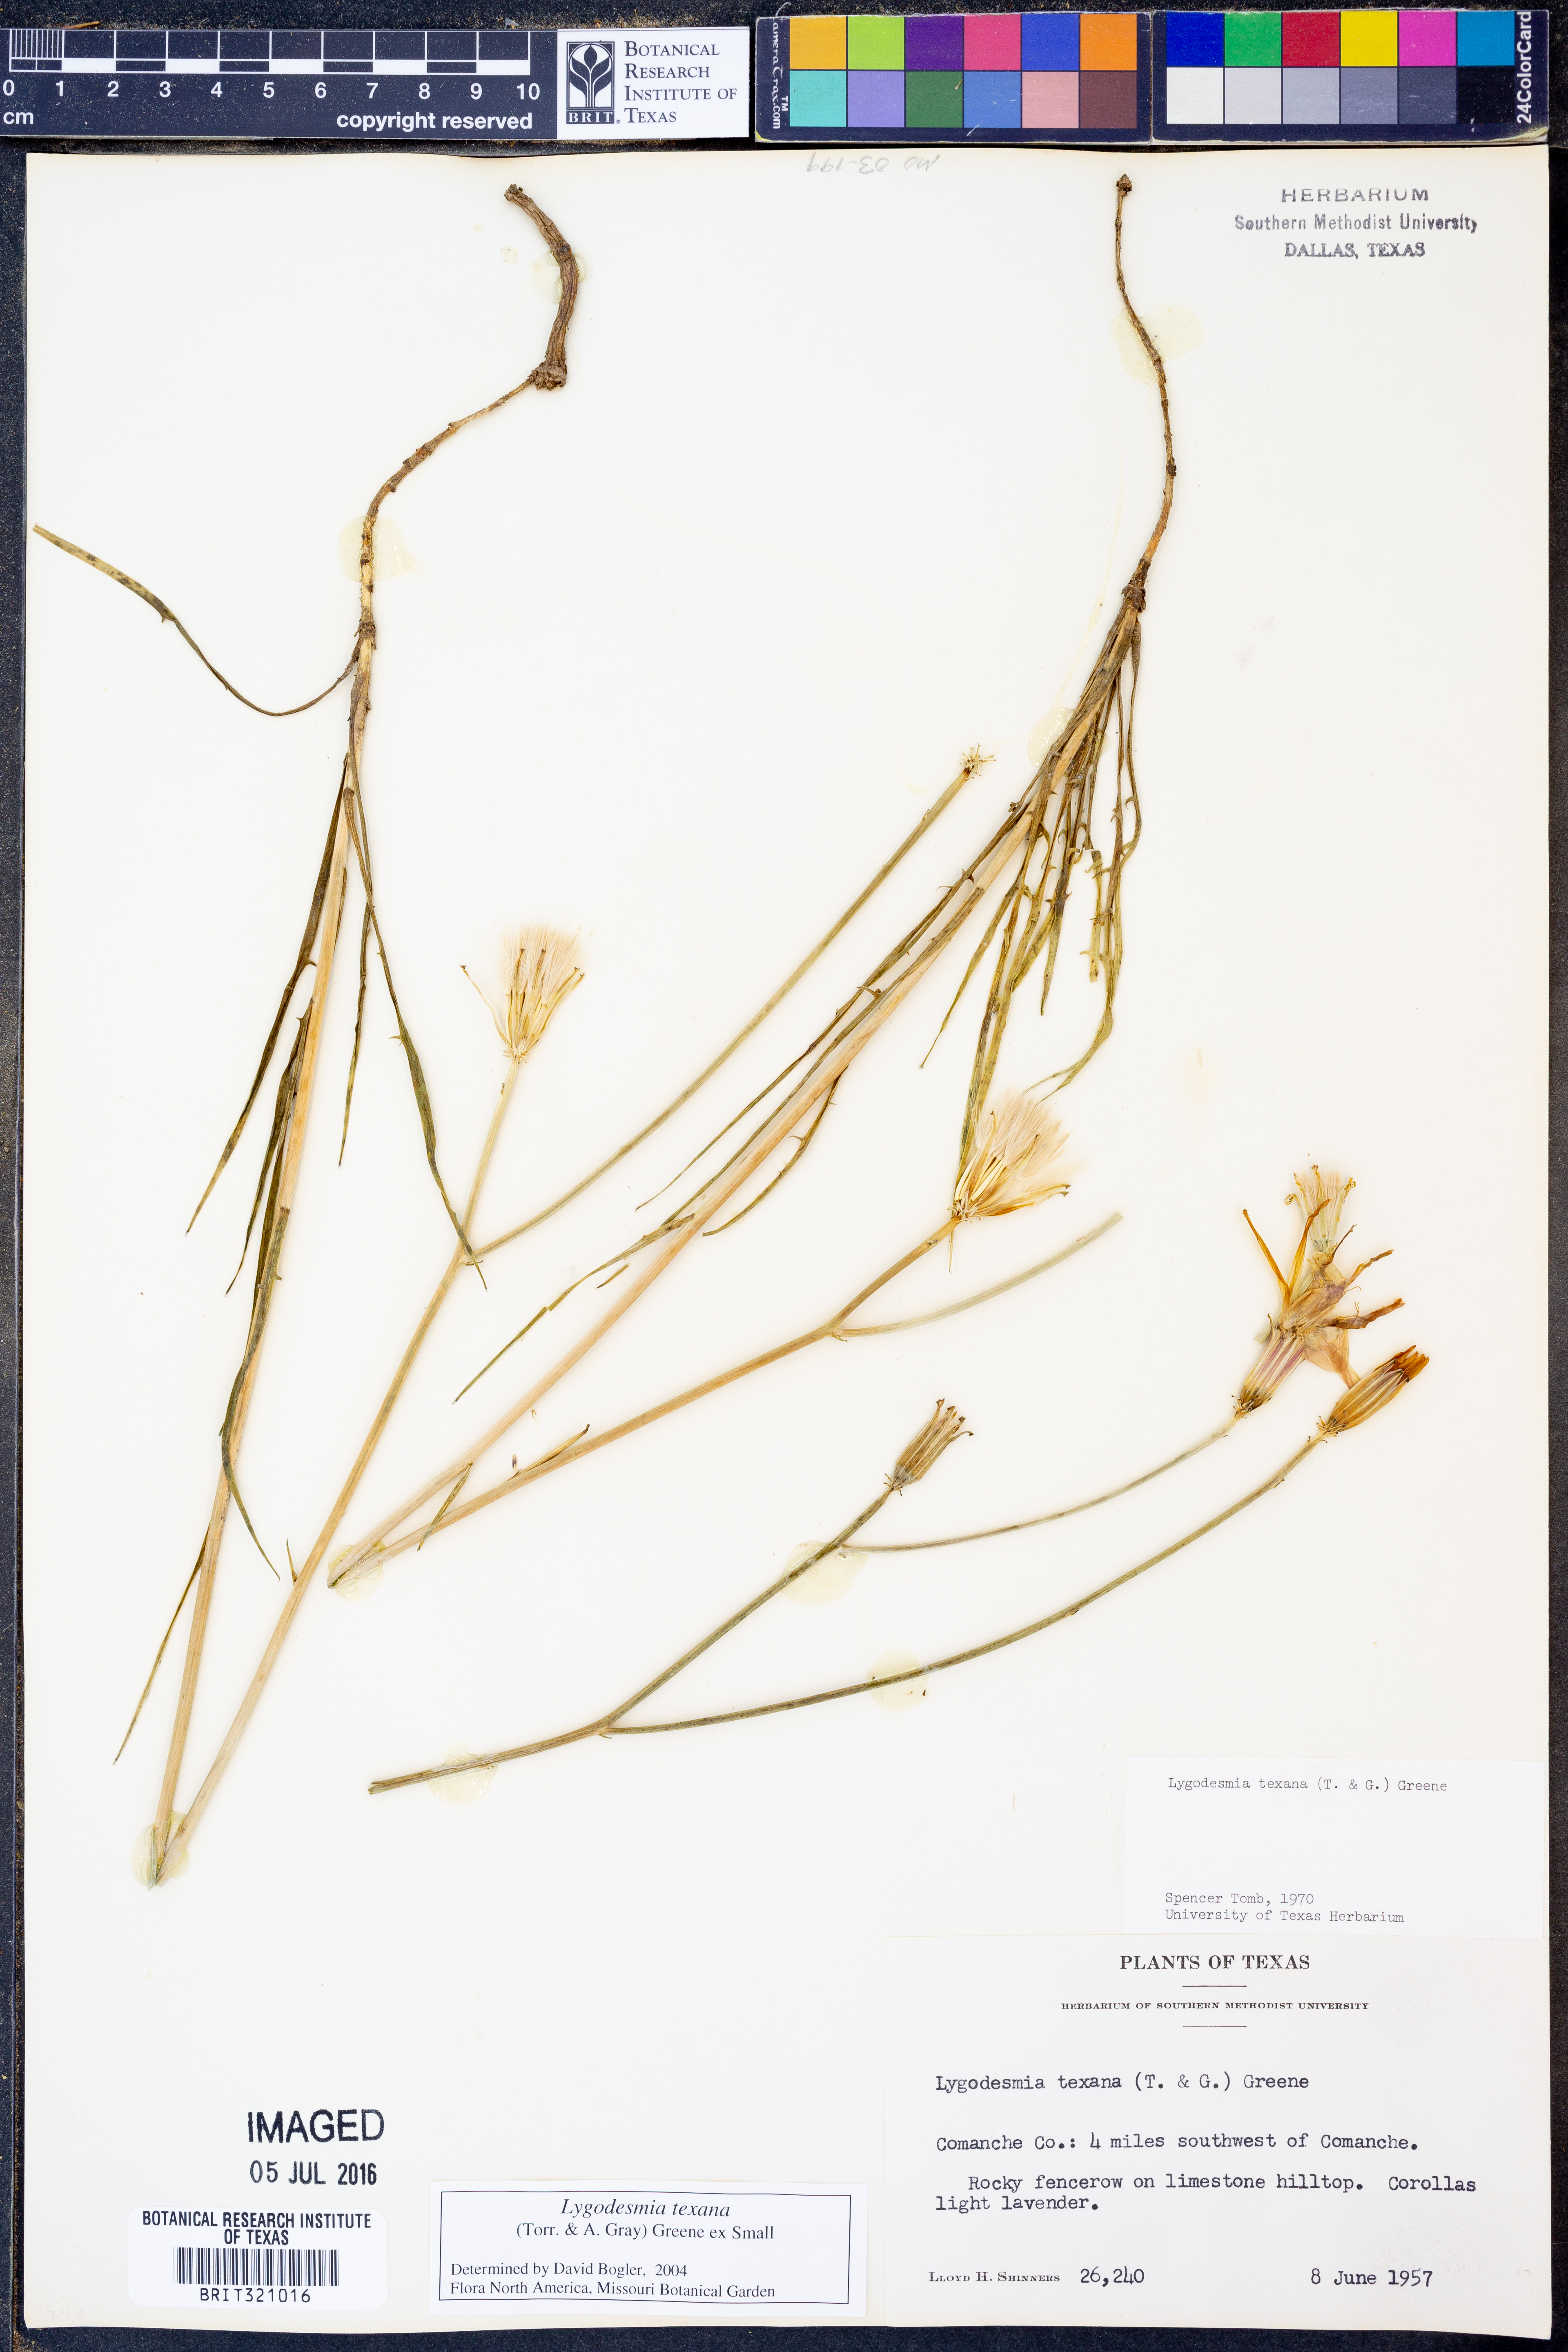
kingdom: Plantae
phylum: Tracheophyta
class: Magnoliopsida
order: Asterales
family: Asteraceae
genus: Lygodesmia
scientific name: Lygodesmia texana
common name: Texas skeleton-plant
